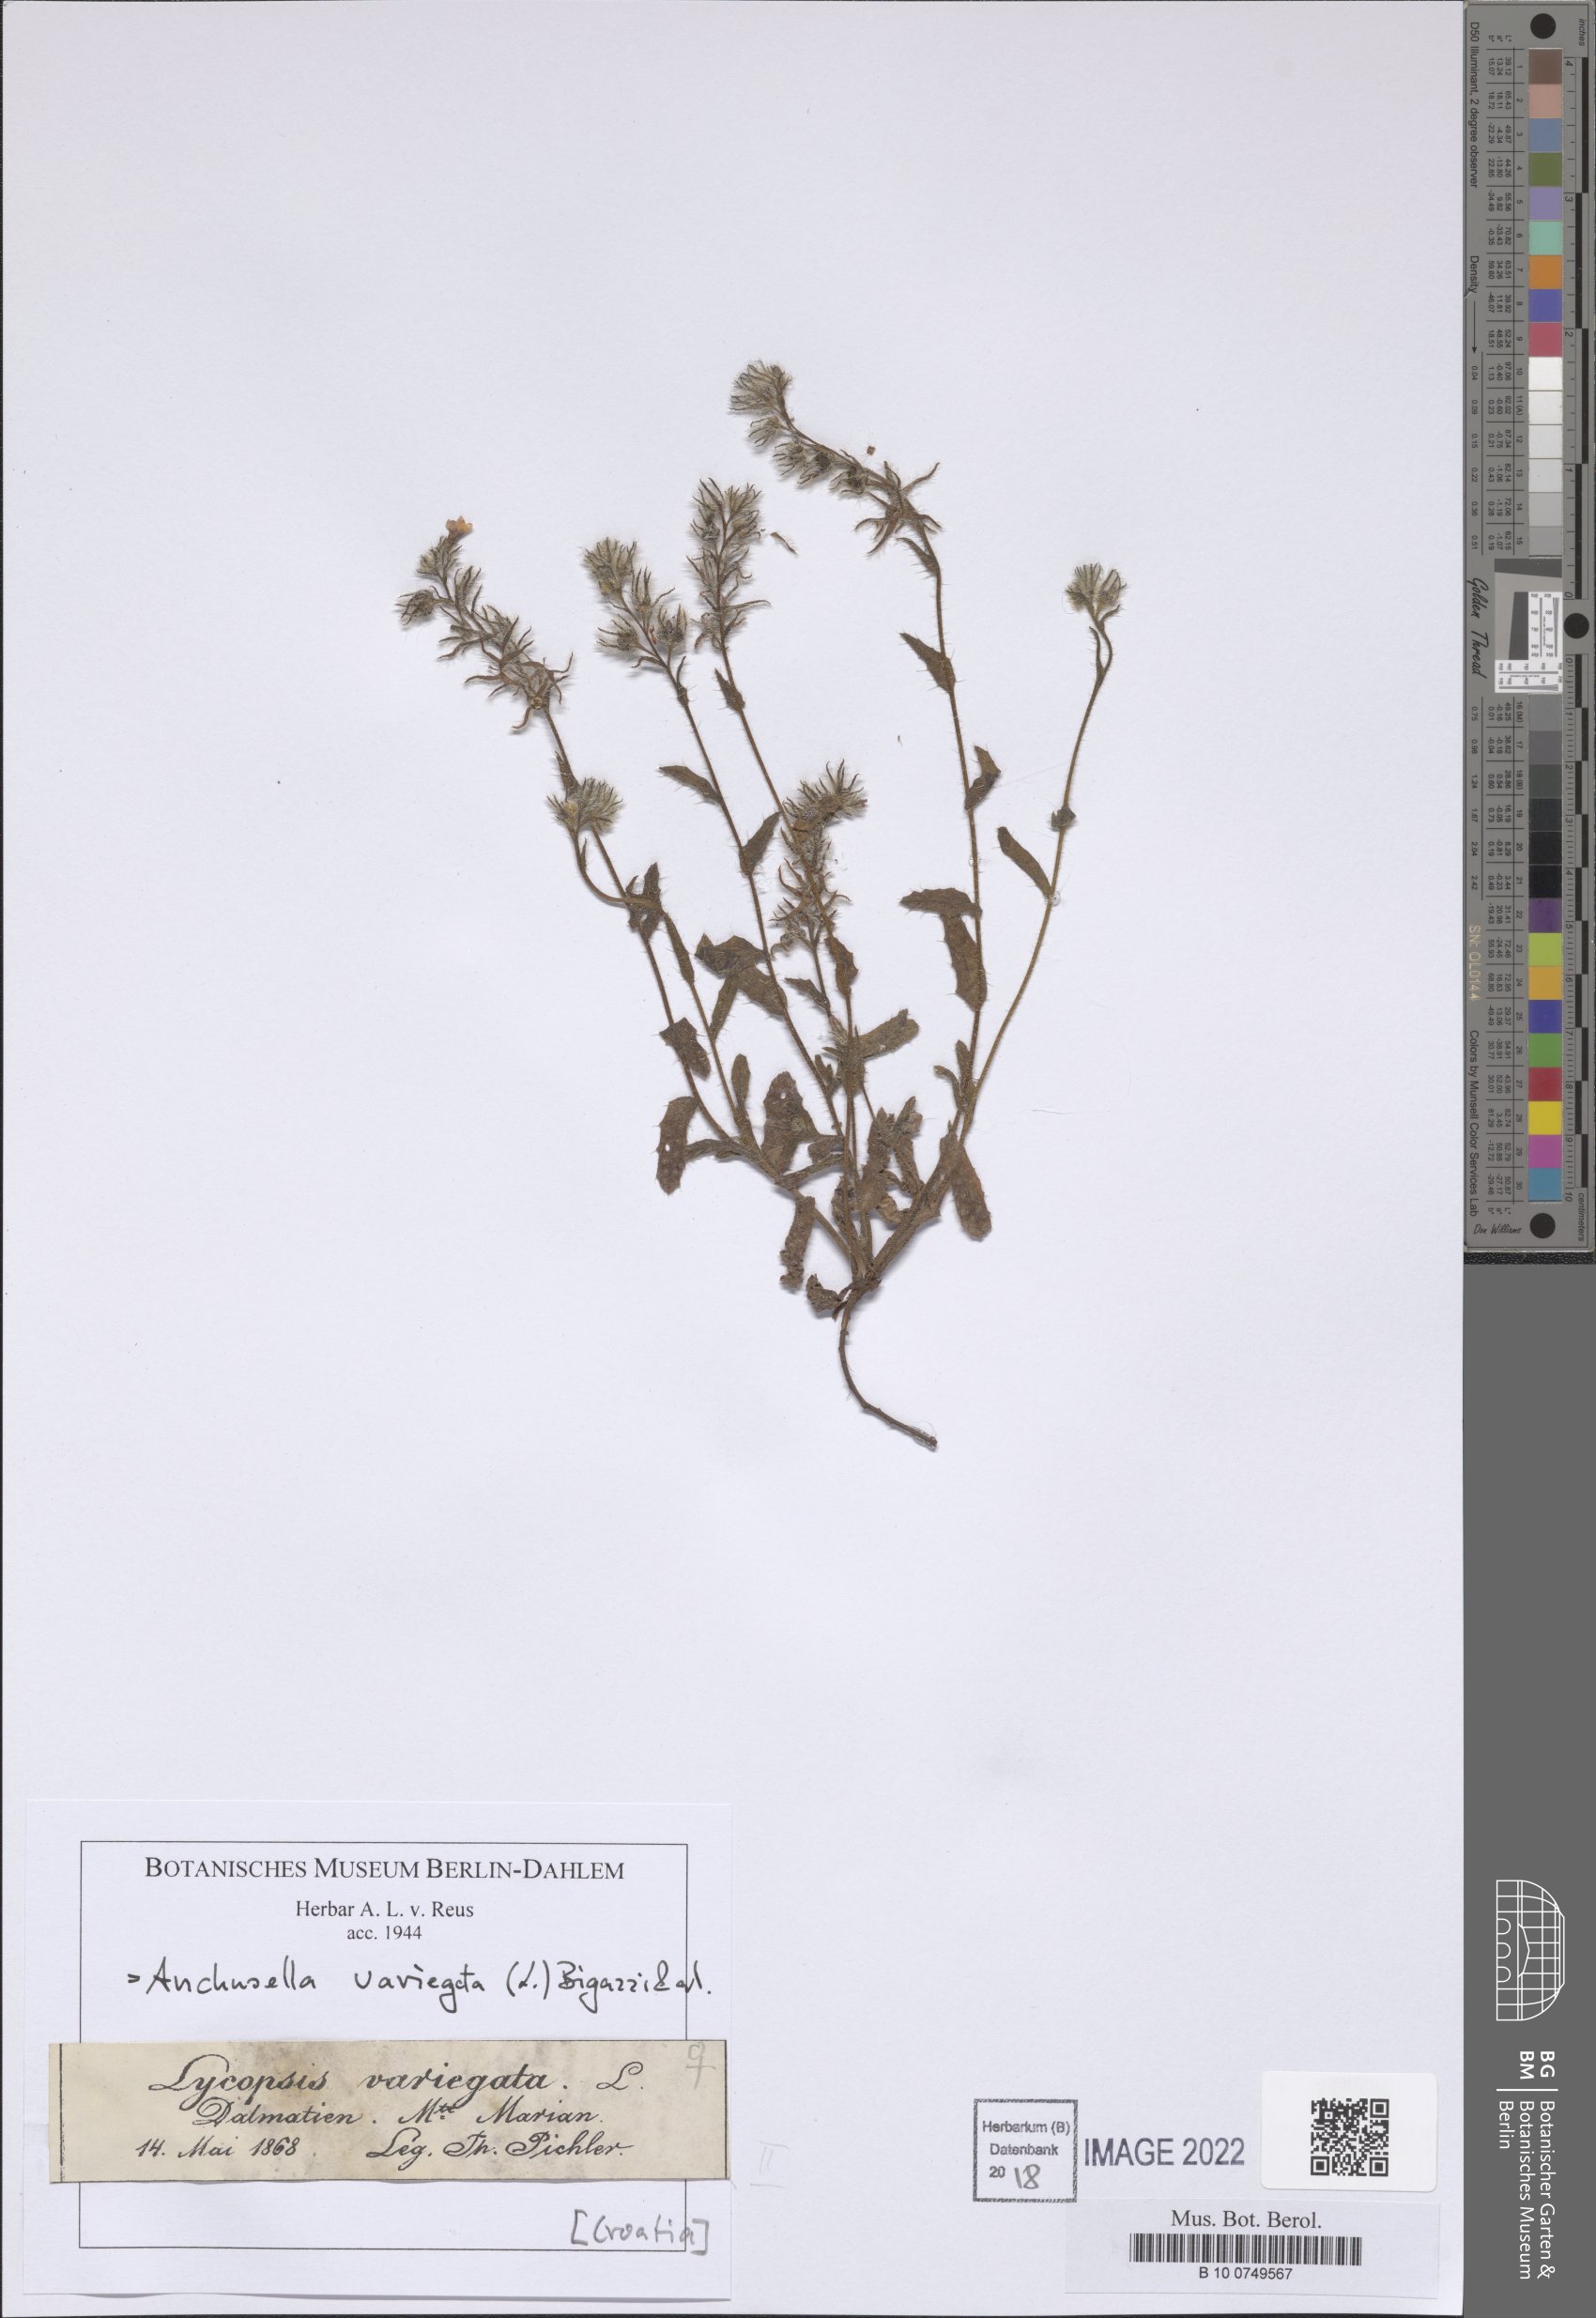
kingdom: Plantae
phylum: Tracheophyta
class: Magnoliopsida
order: Boraginales
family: Boraginaceae
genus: Anchusella
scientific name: Anchusella variegata
